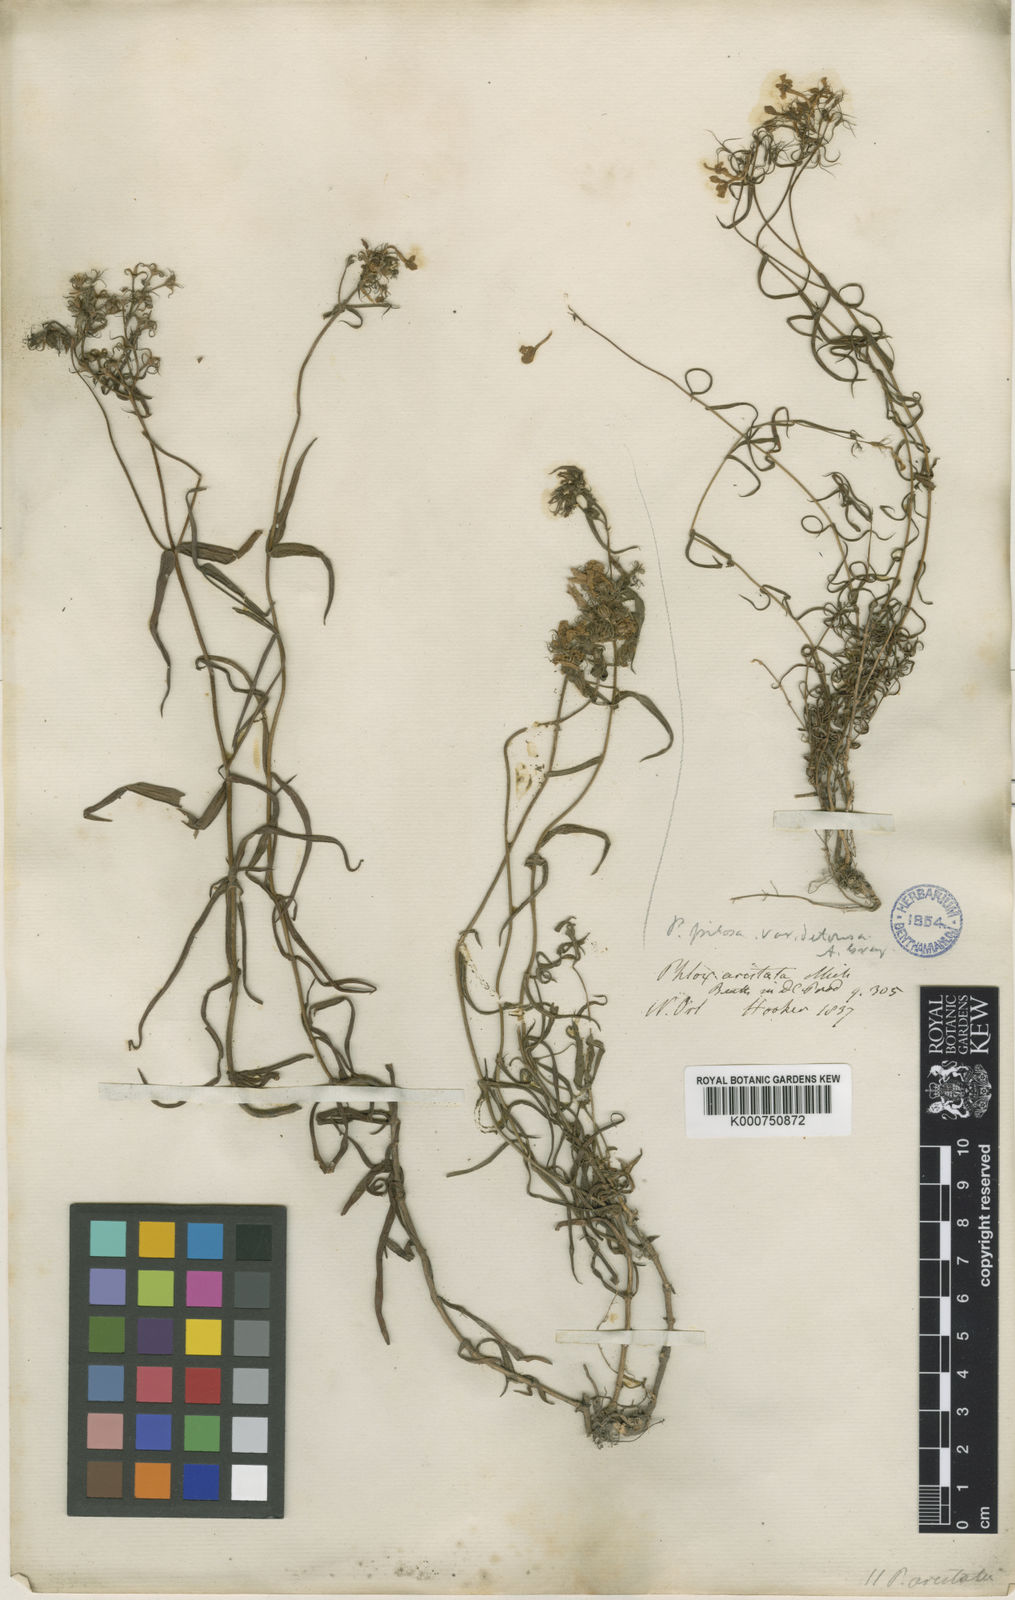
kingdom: Plantae
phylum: Tracheophyta
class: Magnoliopsida
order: Ericales
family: Polemoniaceae
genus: Phlox
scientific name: Phlox pilosa
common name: Prairie phlox
